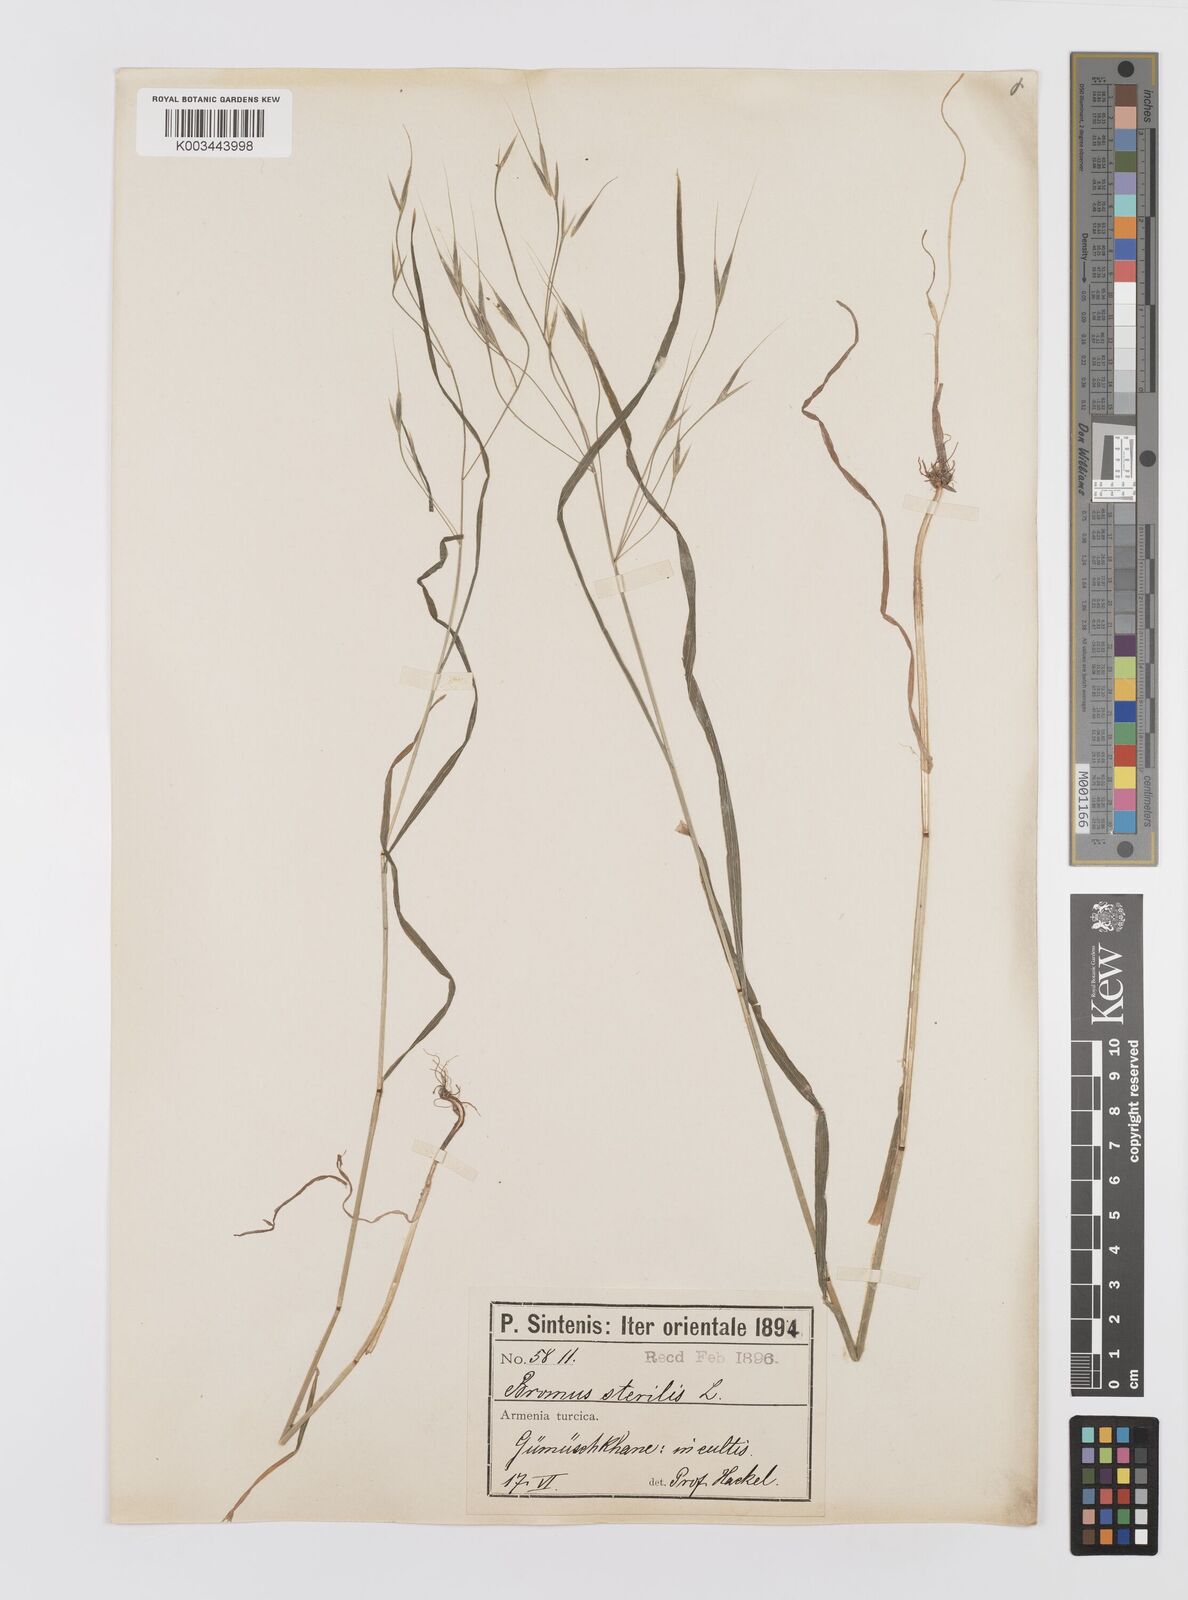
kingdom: Plantae
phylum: Tracheophyta
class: Liliopsida
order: Poales
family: Poaceae
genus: Bromus
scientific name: Bromus sterilis
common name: Poverty brome
